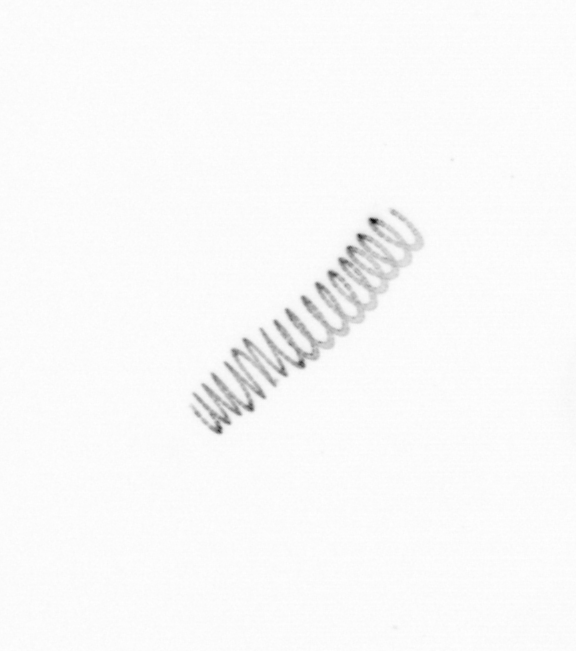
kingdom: Chromista
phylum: Ochrophyta
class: Bacillariophyceae
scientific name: Bacillariophyceae
